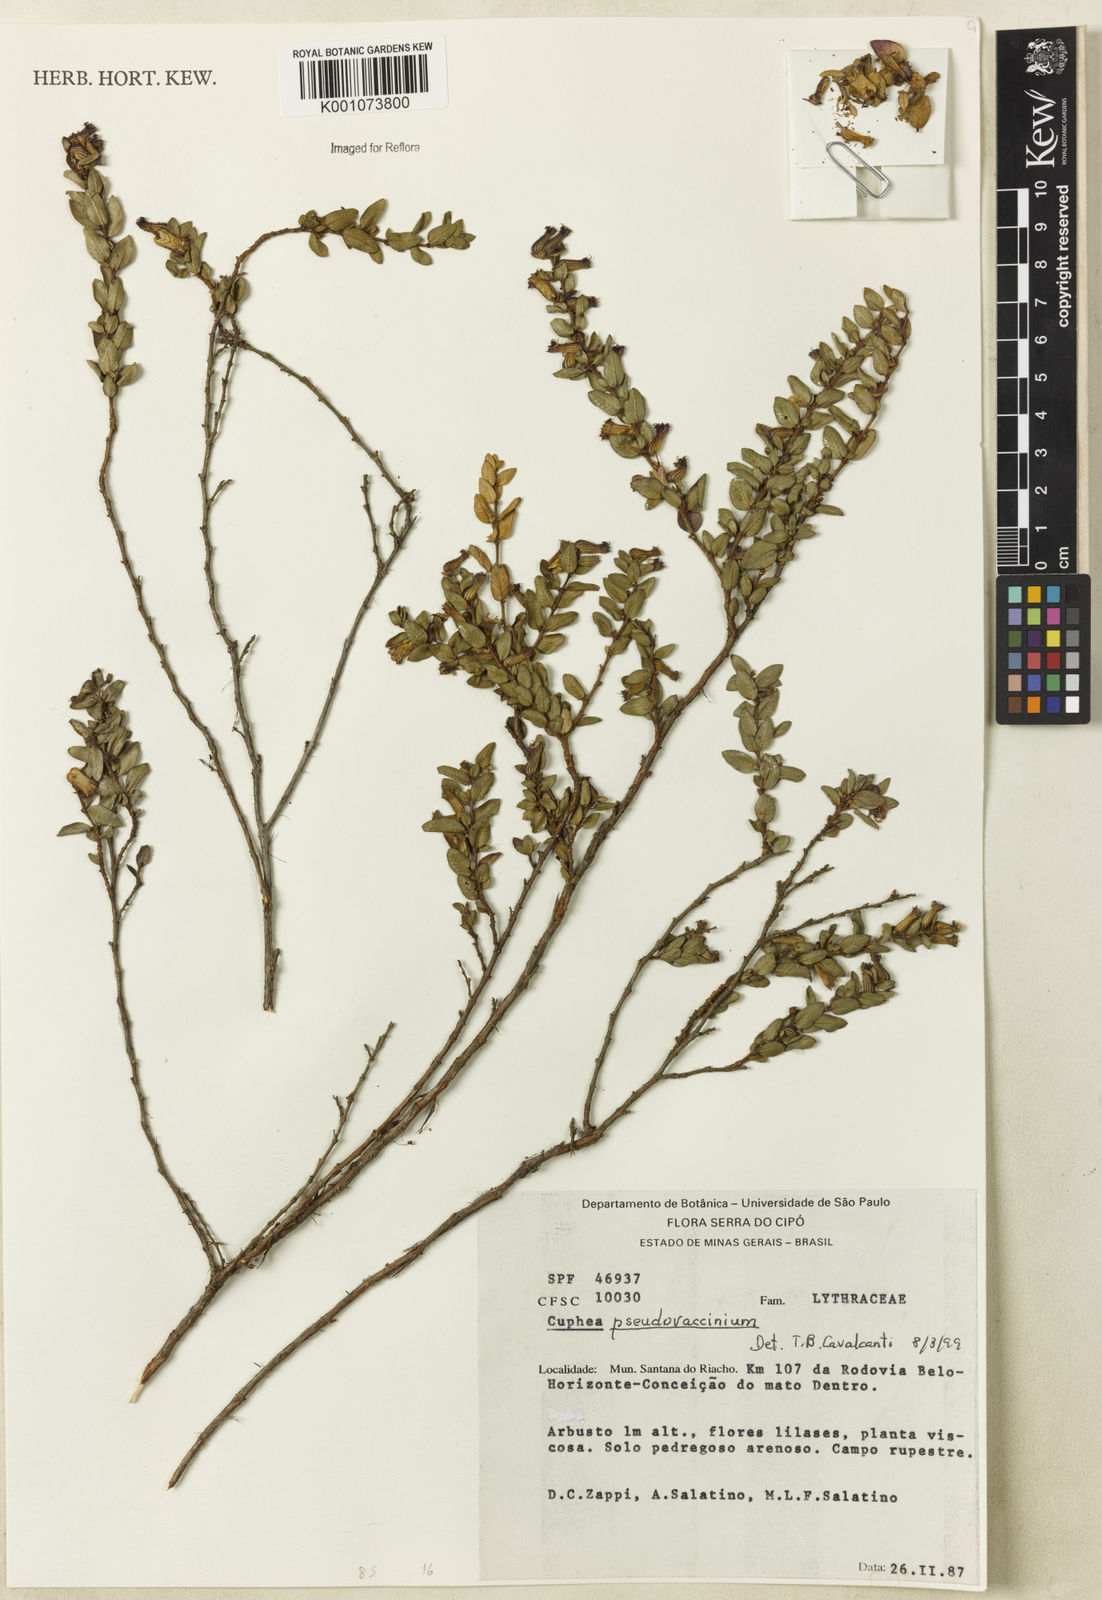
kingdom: Plantae
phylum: Tracheophyta
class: Magnoliopsida
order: Myrtales
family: Lythraceae
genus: Cuphea
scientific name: Cuphea pseudovaccinium
